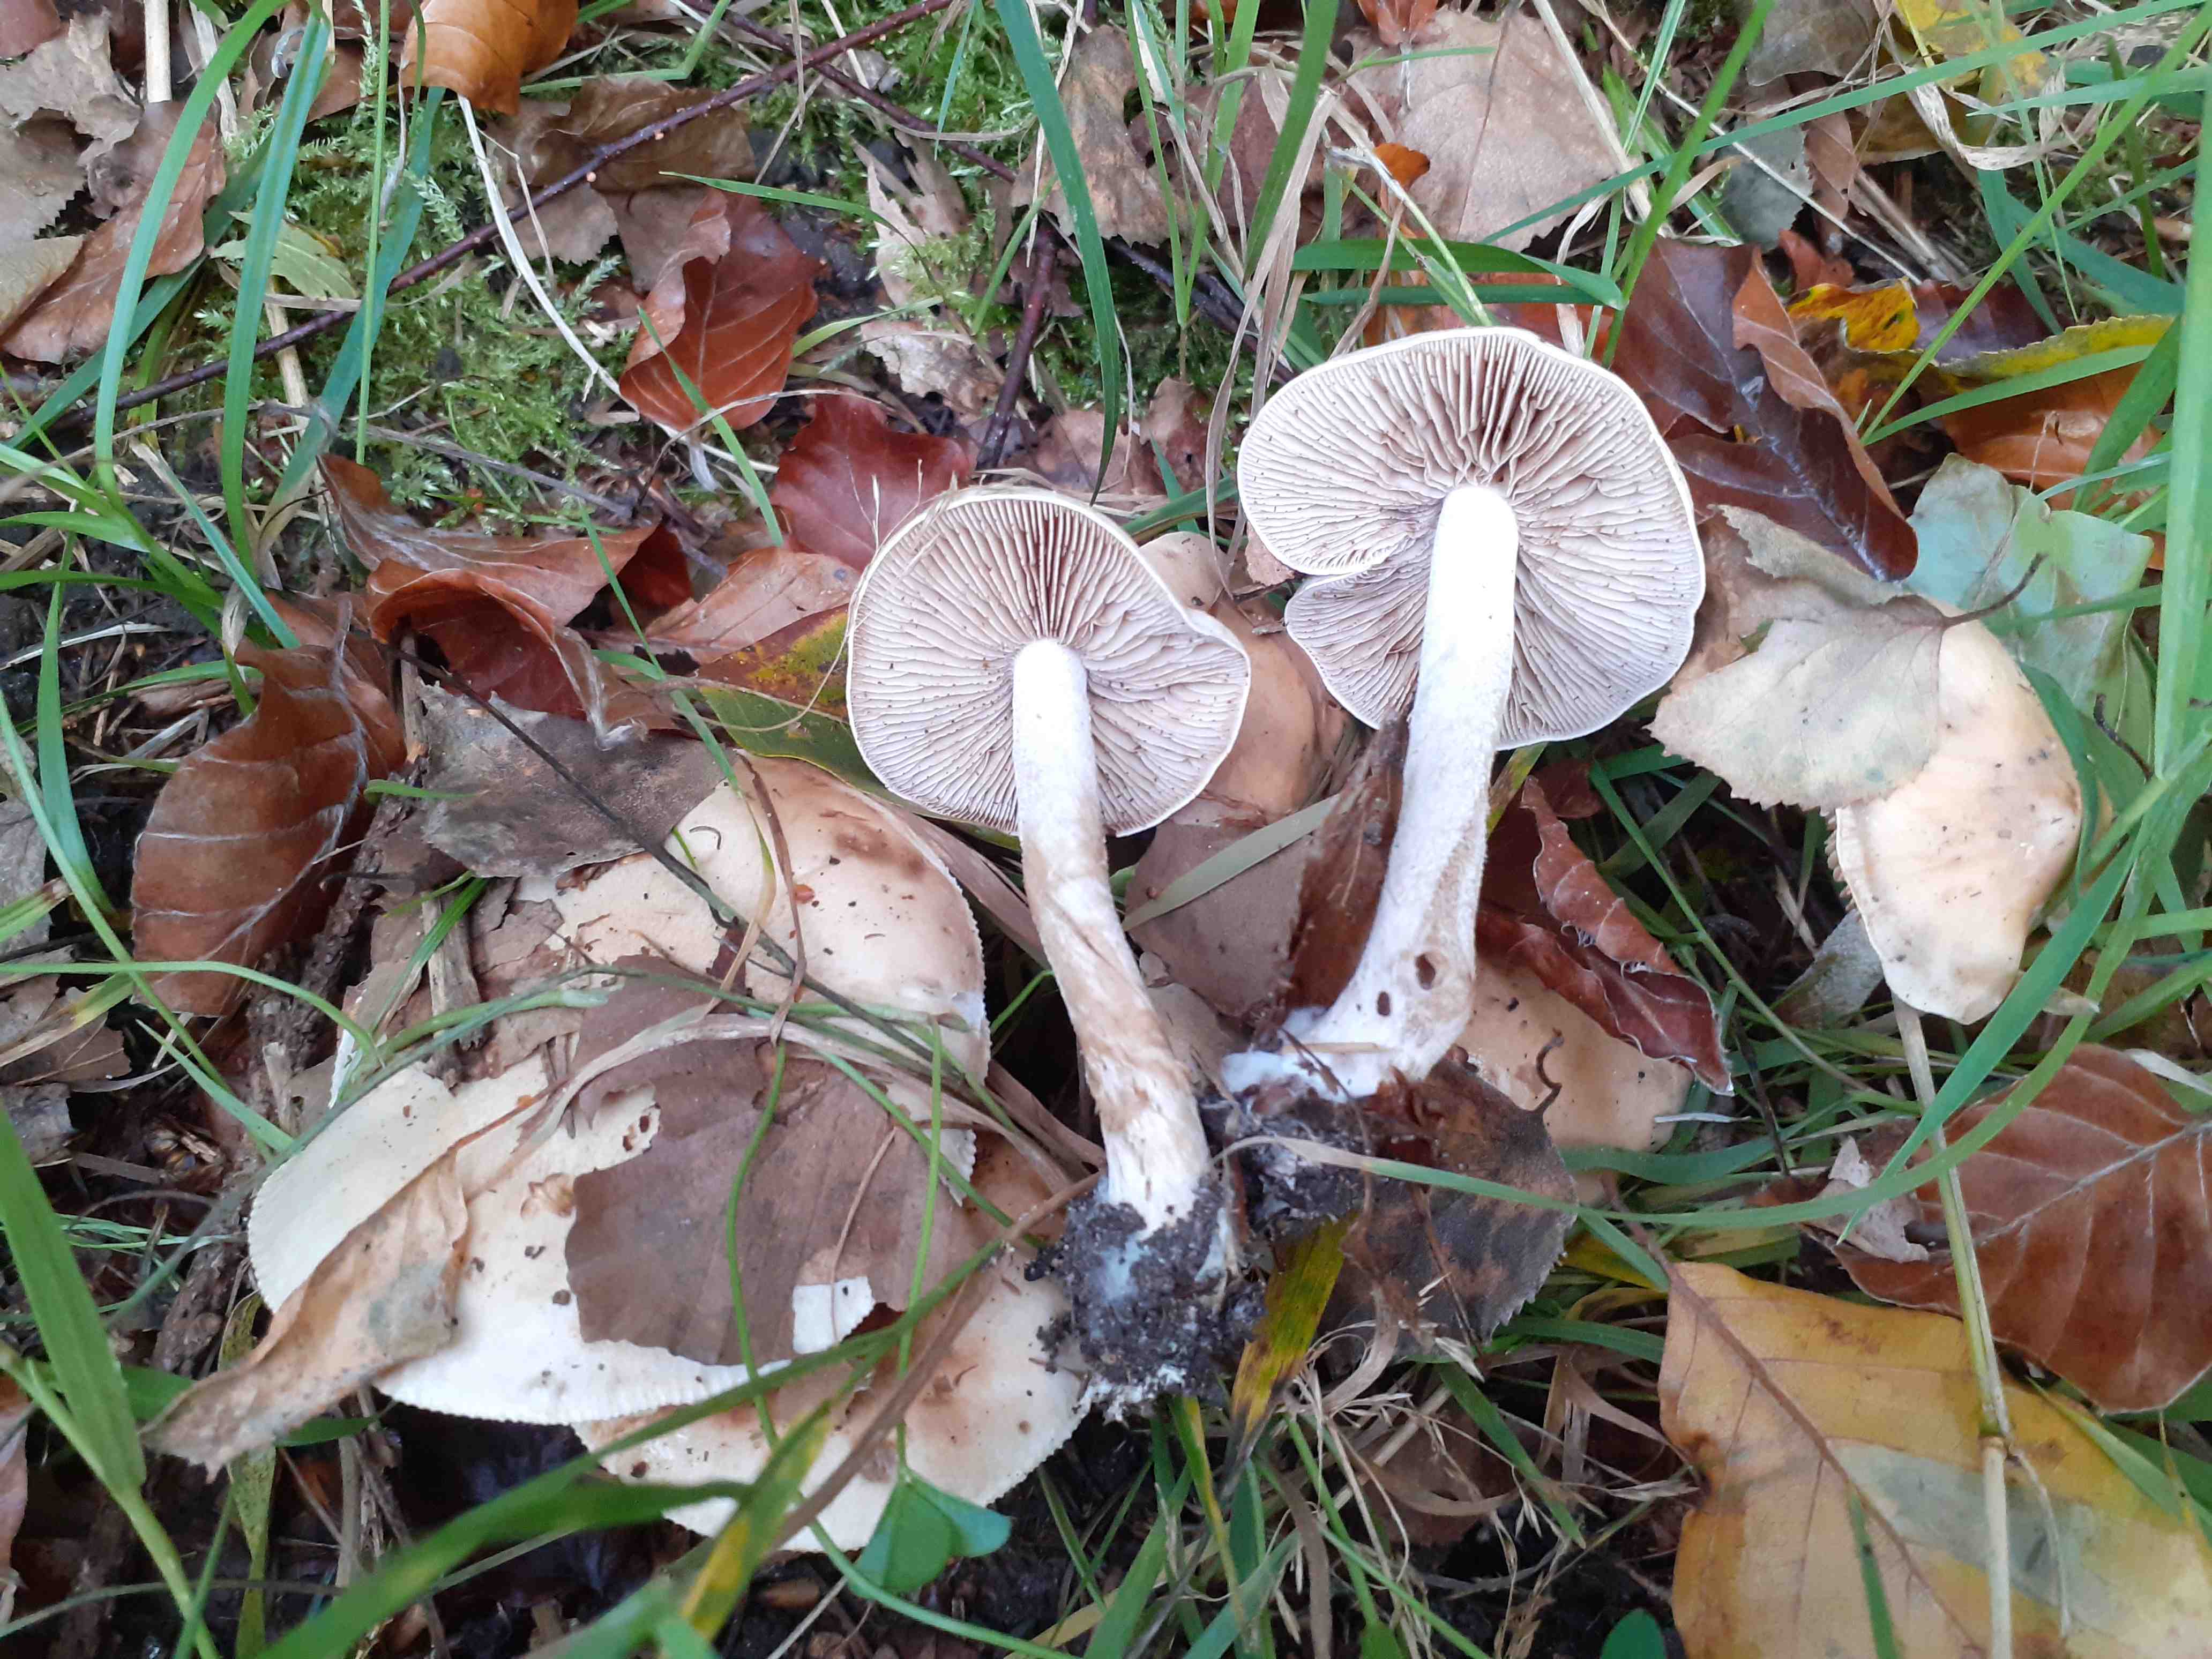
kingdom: Fungi
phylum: Basidiomycota
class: Agaricomycetes
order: Agaricales
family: Hymenogastraceae
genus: Hebeloma
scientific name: Hebeloma leucosarx
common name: højstokket tåreblad
